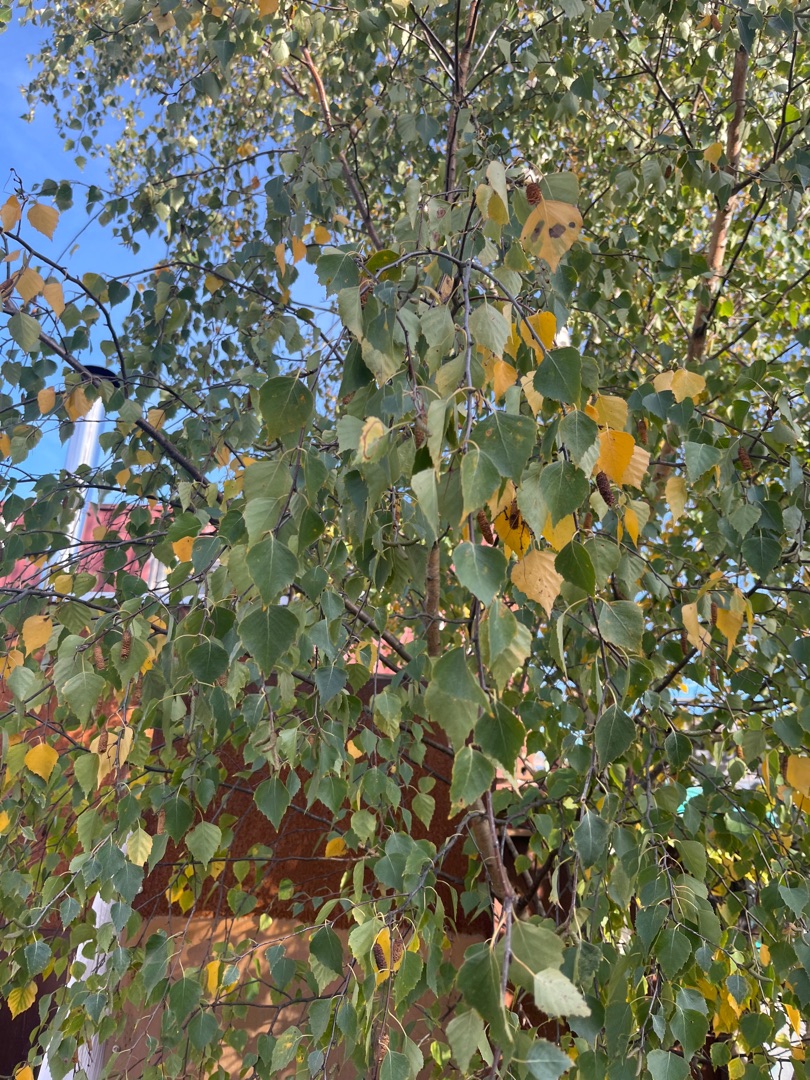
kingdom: Plantae
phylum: Tracheophyta
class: Magnoliopsida
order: Fagales
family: Betulaceae
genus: Betula
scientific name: Betula pendula
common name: Vorte-birk
